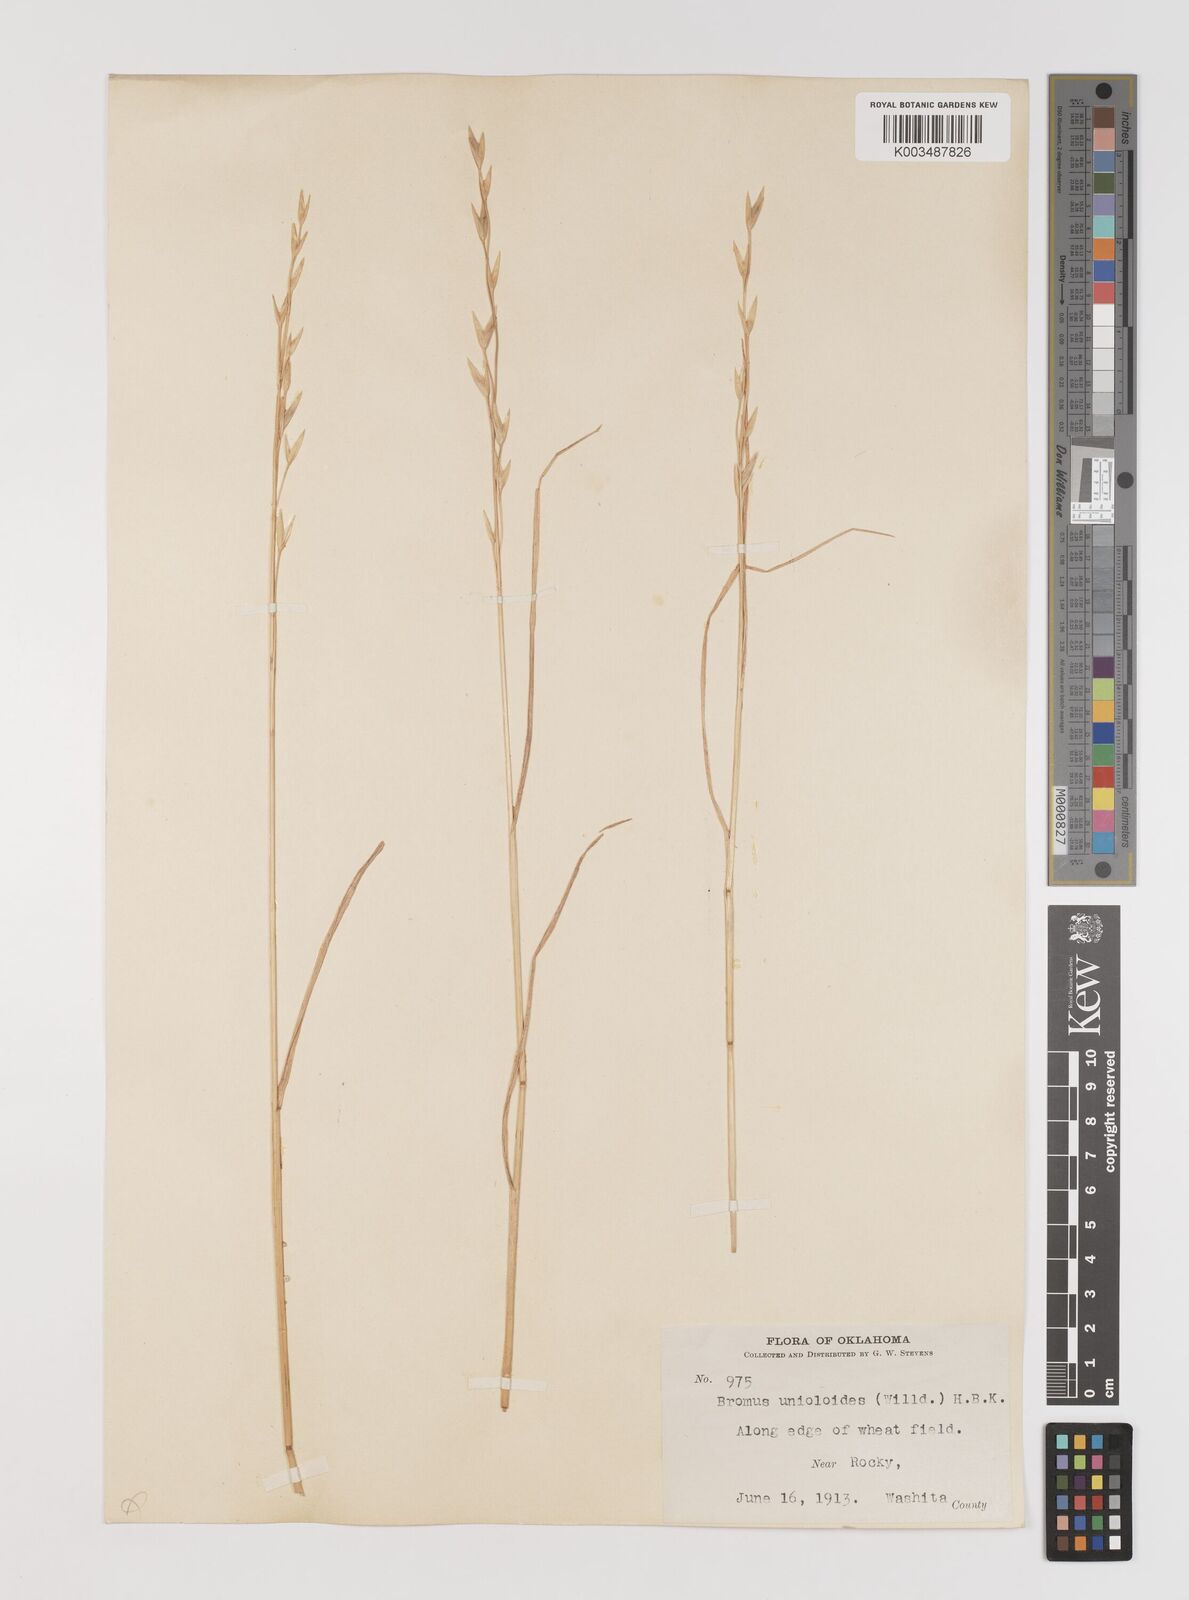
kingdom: Plantae
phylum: Tracheophyta
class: Liliopsida
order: Poales
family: Poaceae
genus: Bromus
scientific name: Bromus catharticus
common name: Rescuegrass
